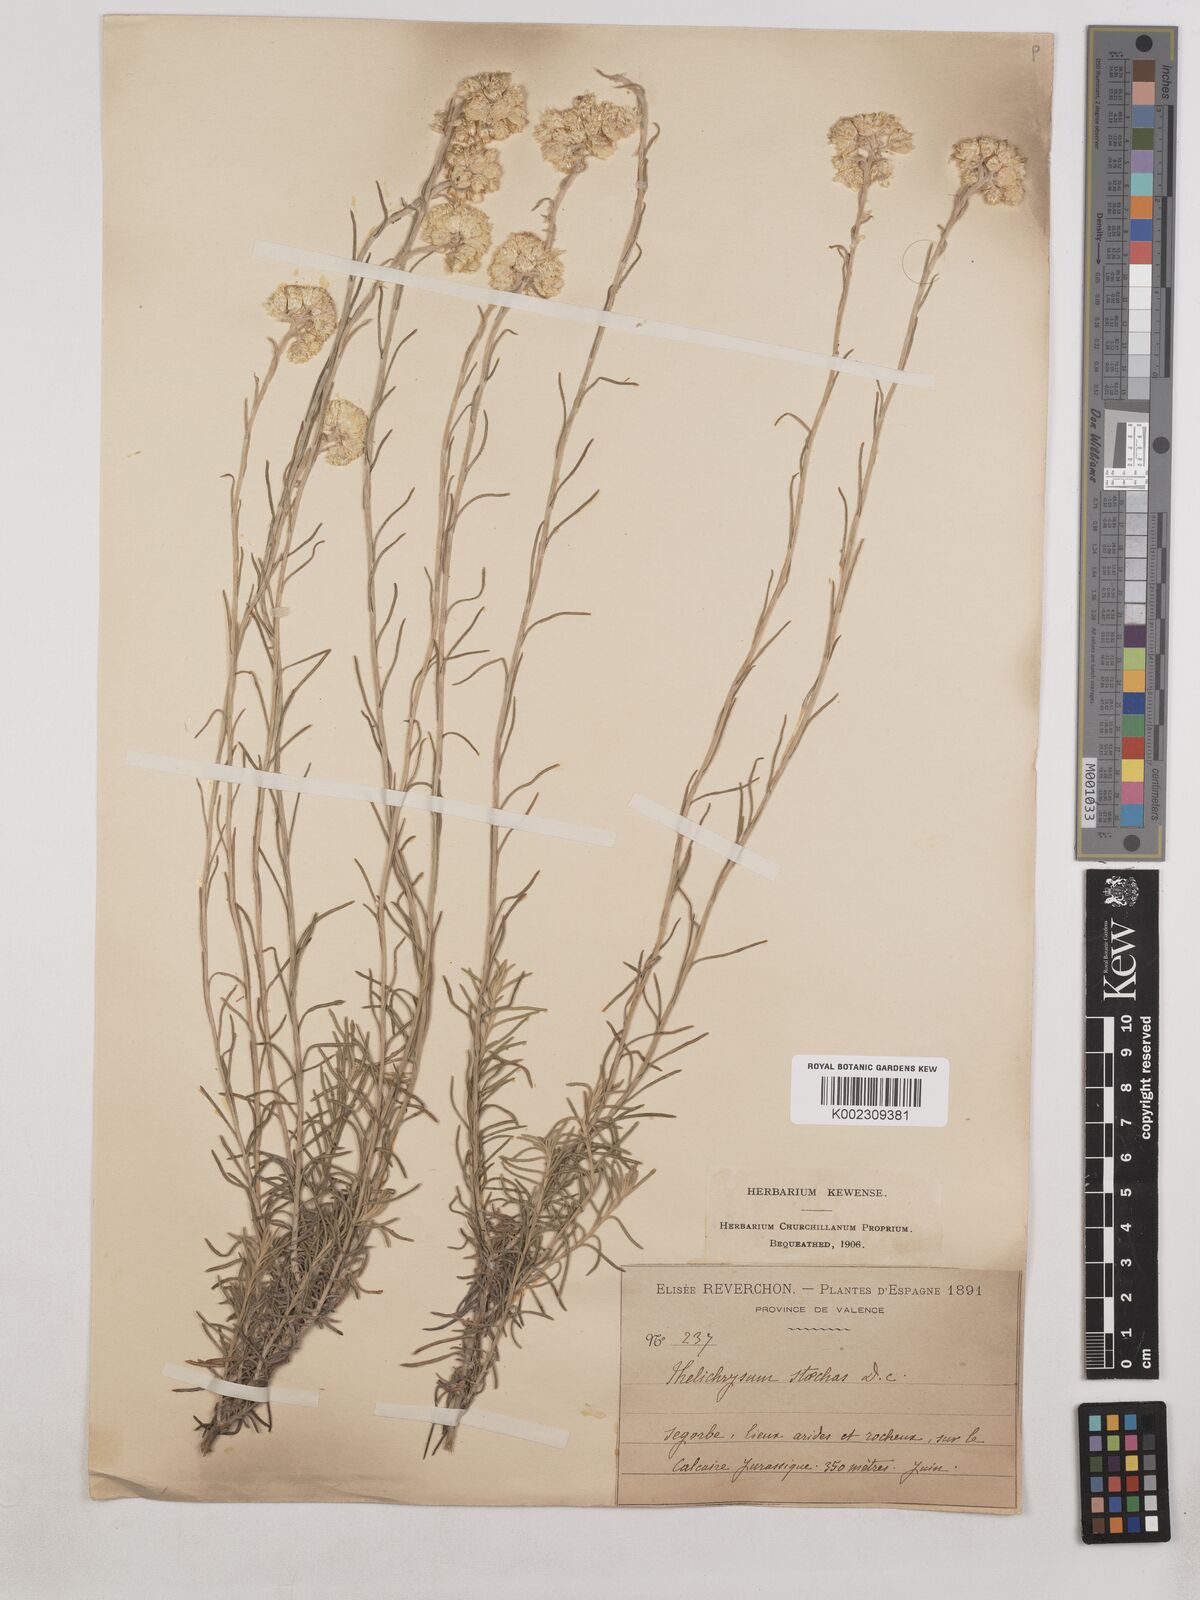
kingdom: Plantae
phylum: Tracheophyta
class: Magnoliopsida
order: Asterales
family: Asteraceae
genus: Helichrysum
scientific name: Helichrysum
